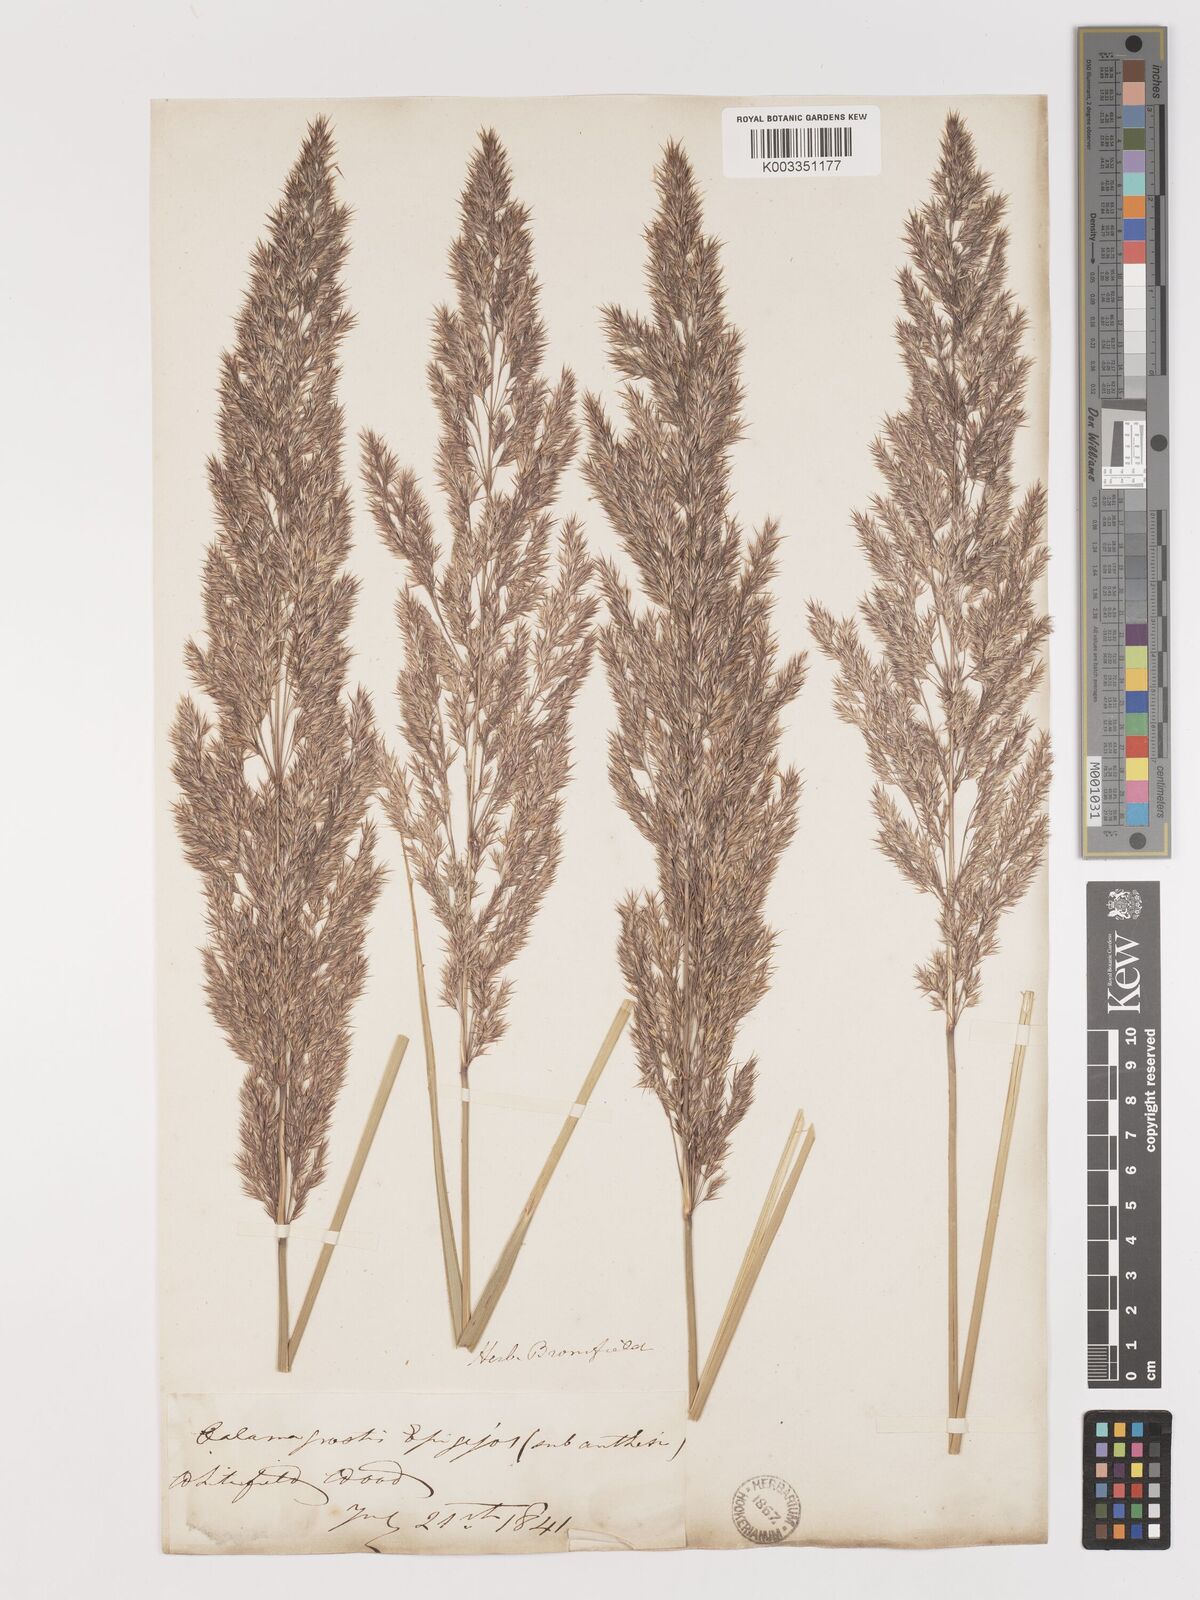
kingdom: Plantae
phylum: Tracheophyta
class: Liliopsida
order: Poales
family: Poaceae
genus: Calamagrostis
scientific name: Calamagrostis
